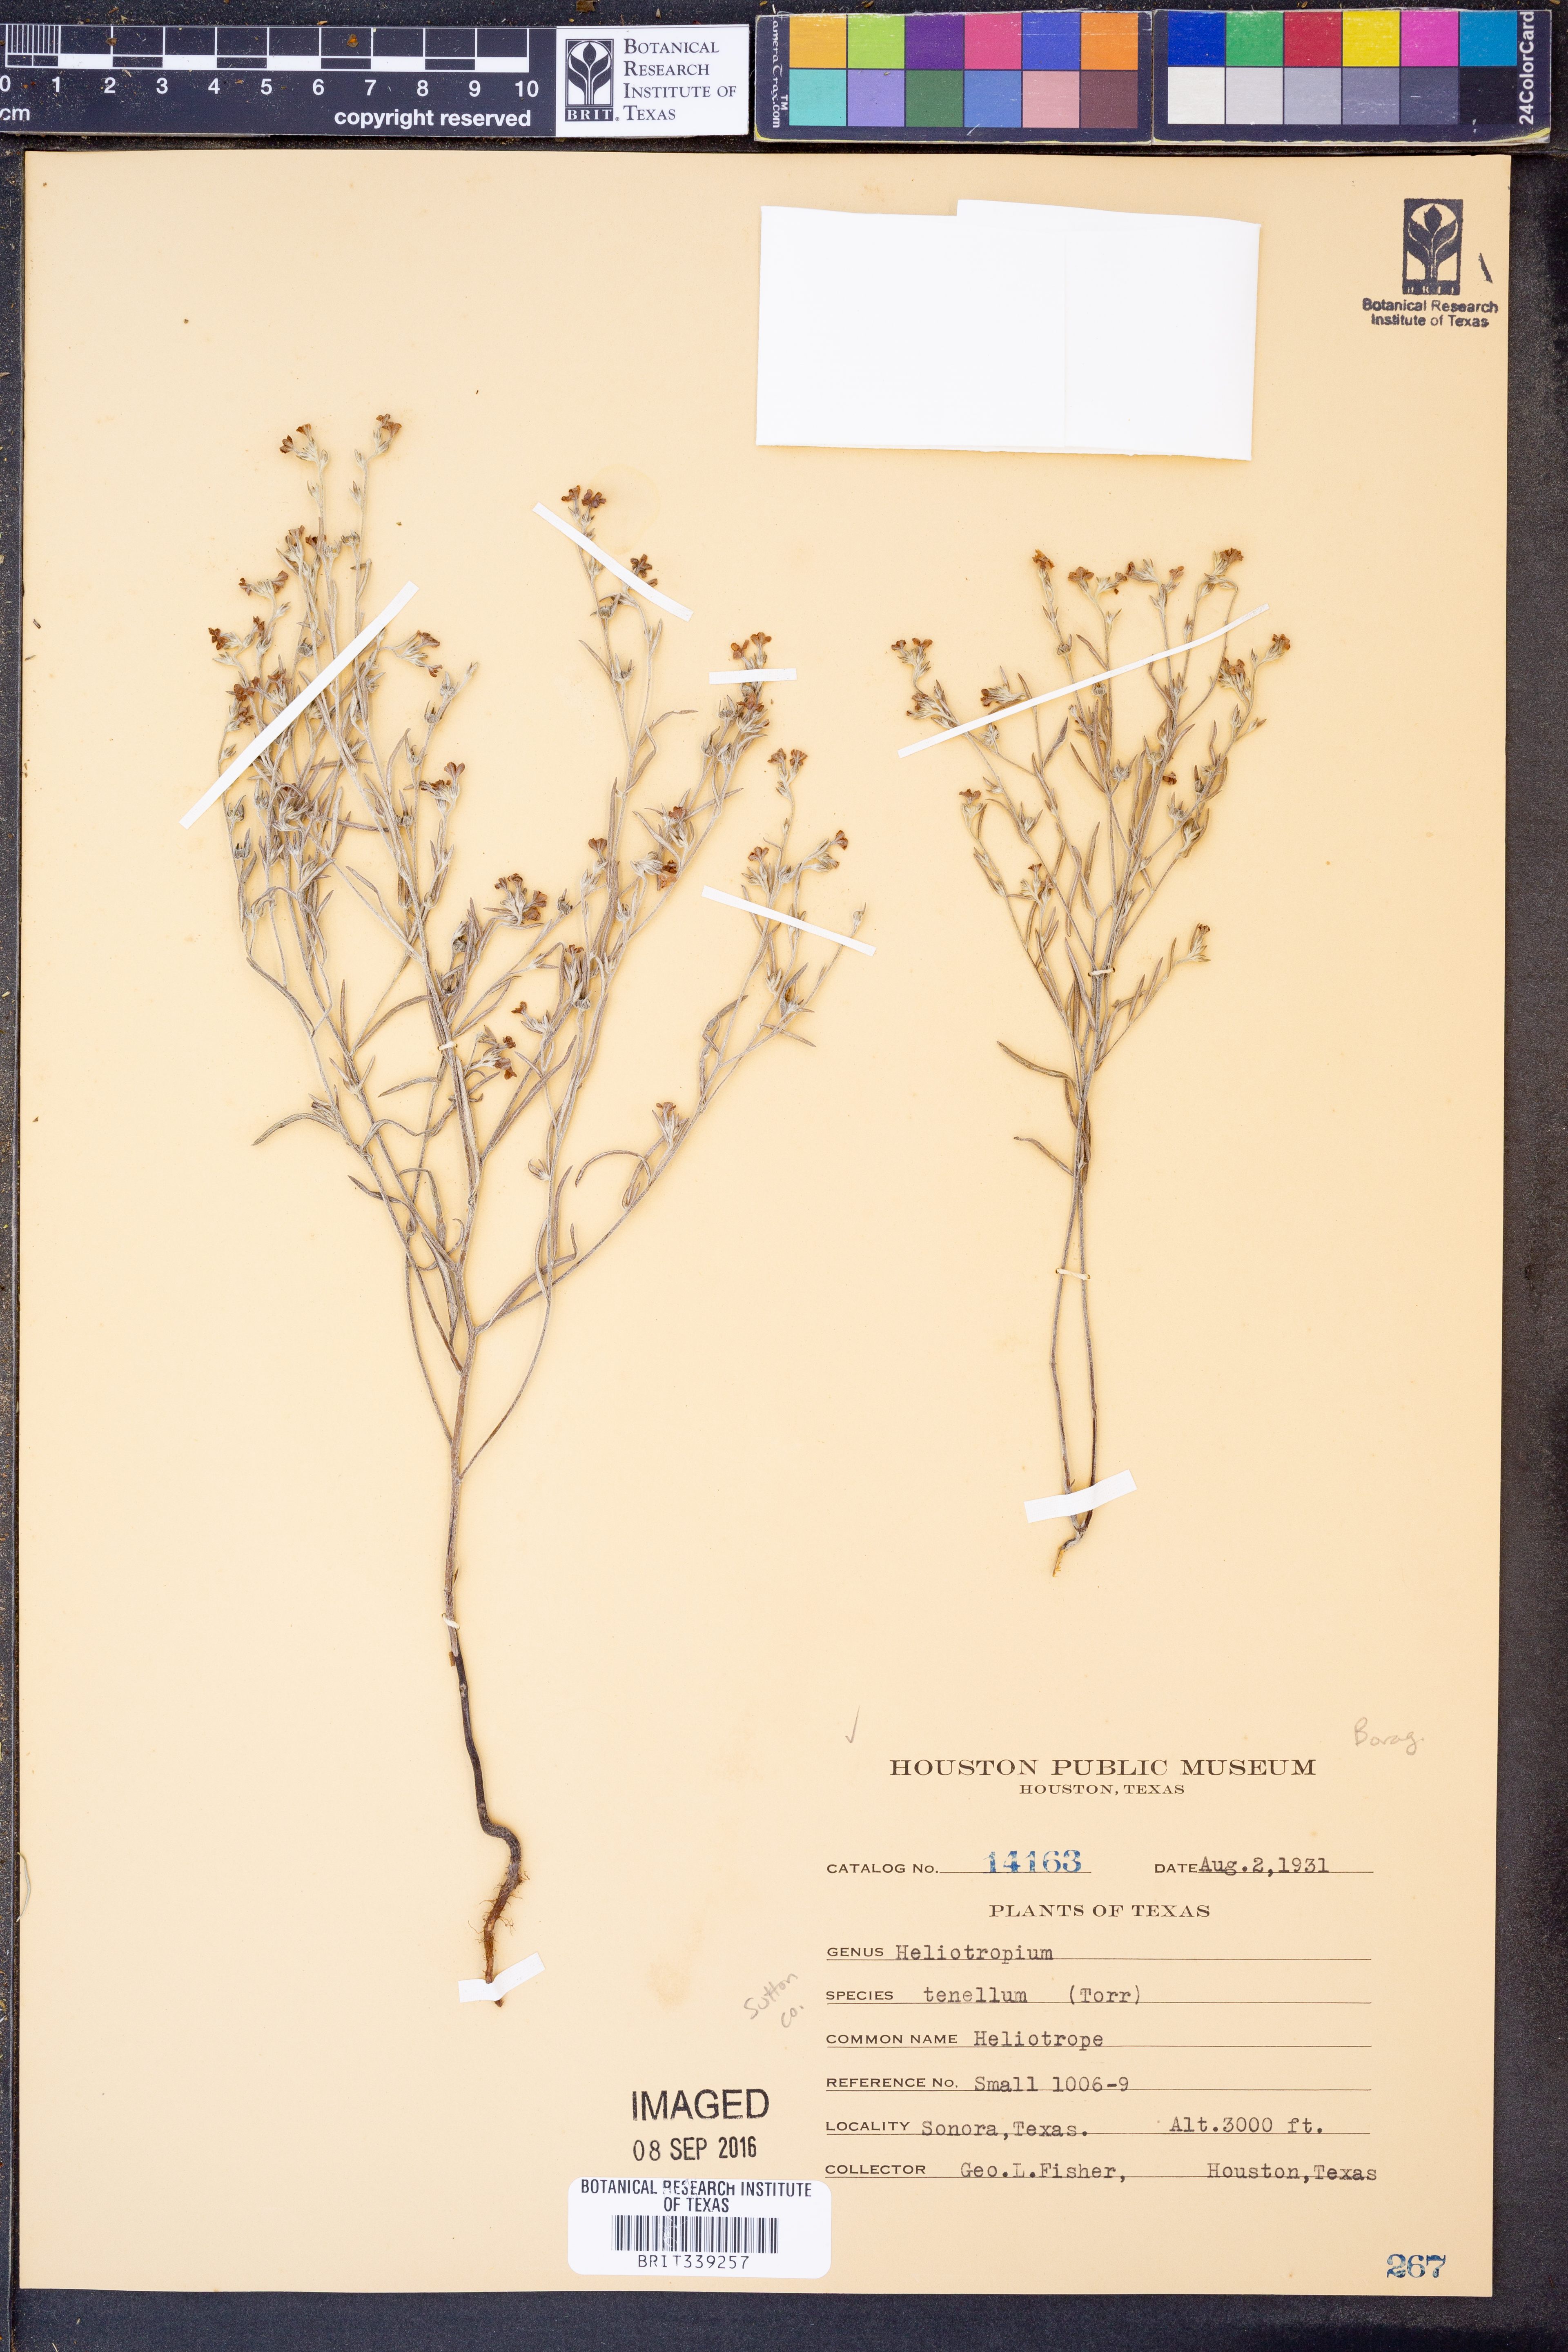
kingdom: Plantae
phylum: Tracheophyta
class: Magnoliopsida
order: Boraginales
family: Heliotropiaceae
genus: Euploca
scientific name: Euploca tenella
